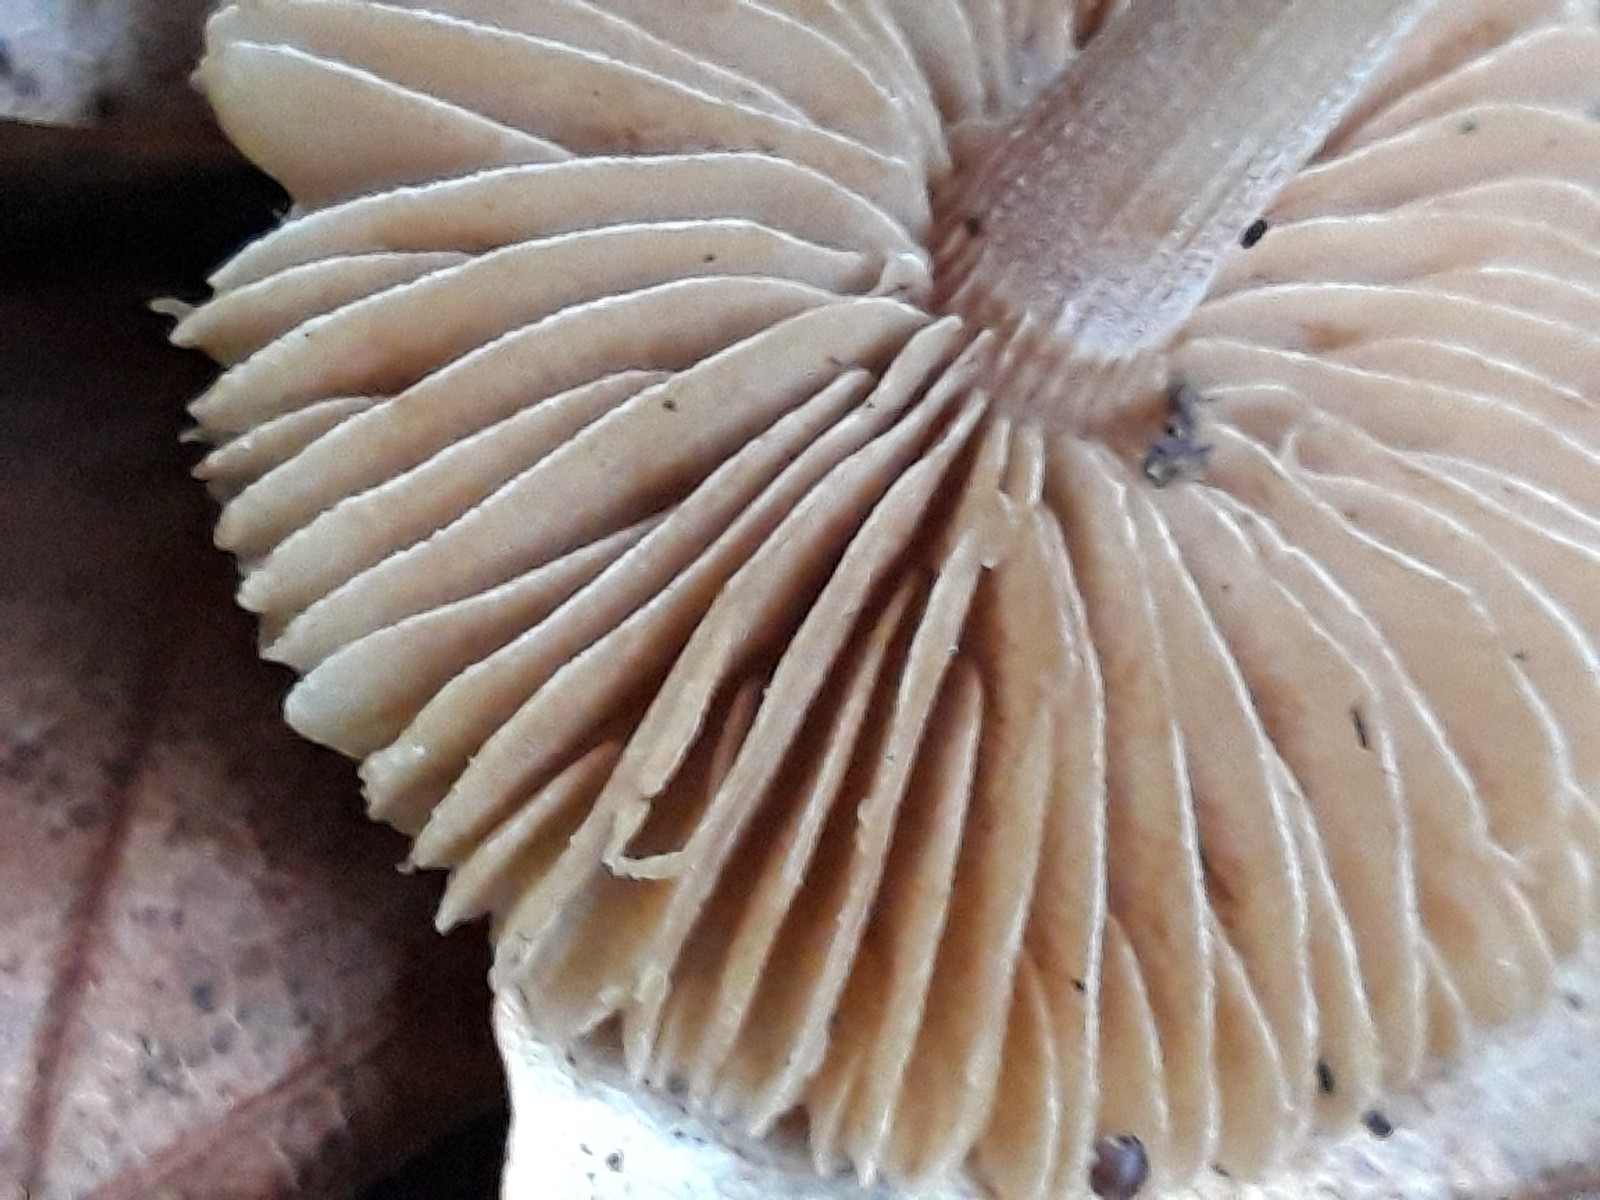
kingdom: Fungi
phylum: Basidiomycota
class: Agaricomycetes
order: Agaricales
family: Inocybaceae
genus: Inocybe
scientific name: Inocybe
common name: trævlhat
